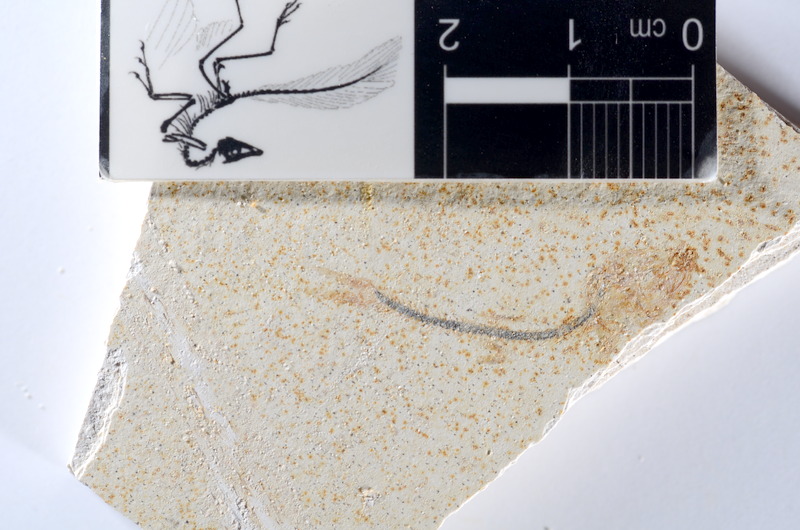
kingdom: Animalia
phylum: Chordata
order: Salmoniformes
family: Orthogonikleithridae
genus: Orthogonikleithrus
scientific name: Orthogonikleithrus hoelli
